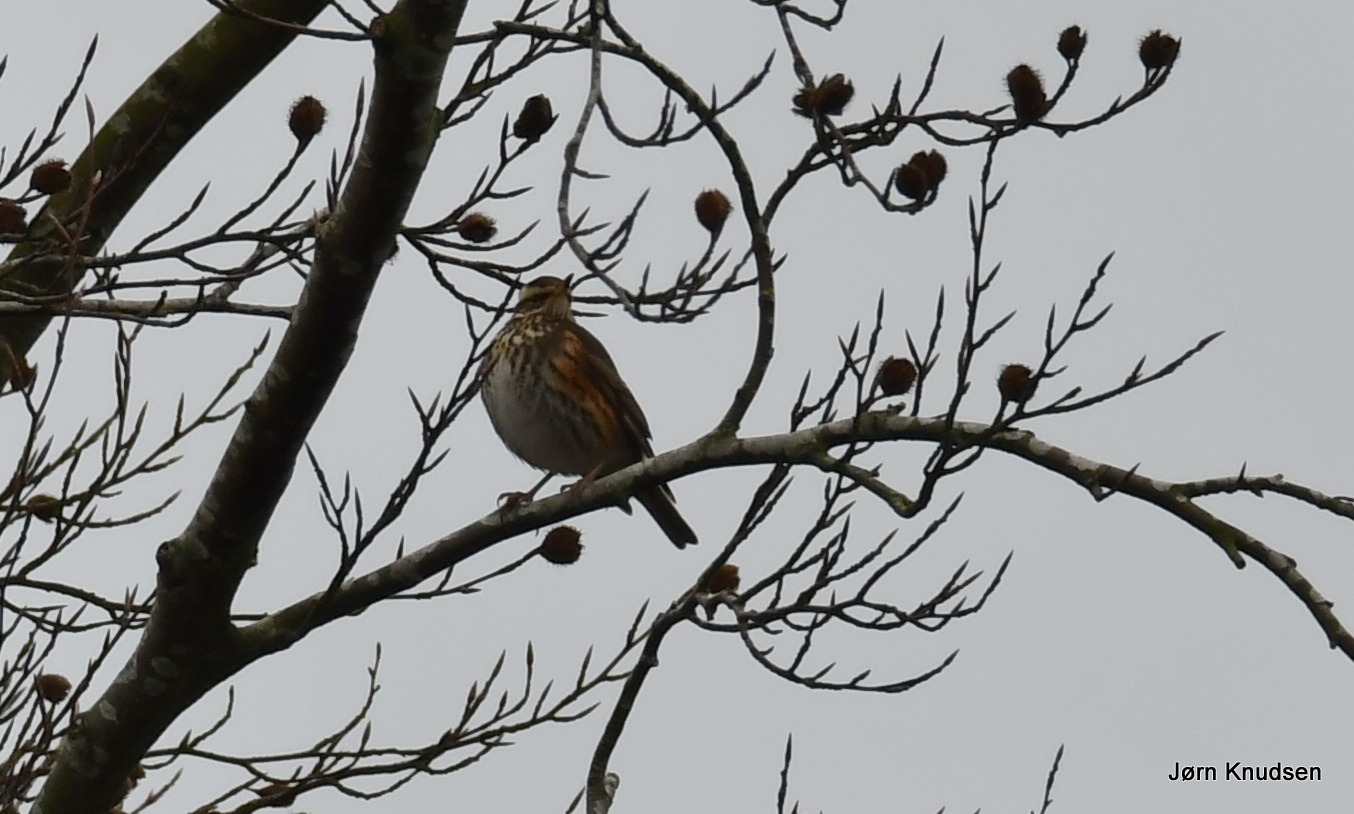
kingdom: Animalia
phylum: Chordata
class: Aves
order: Passeriformes
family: Turdidae
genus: Turdus
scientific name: Turdus iliacus
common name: Vindrossel
